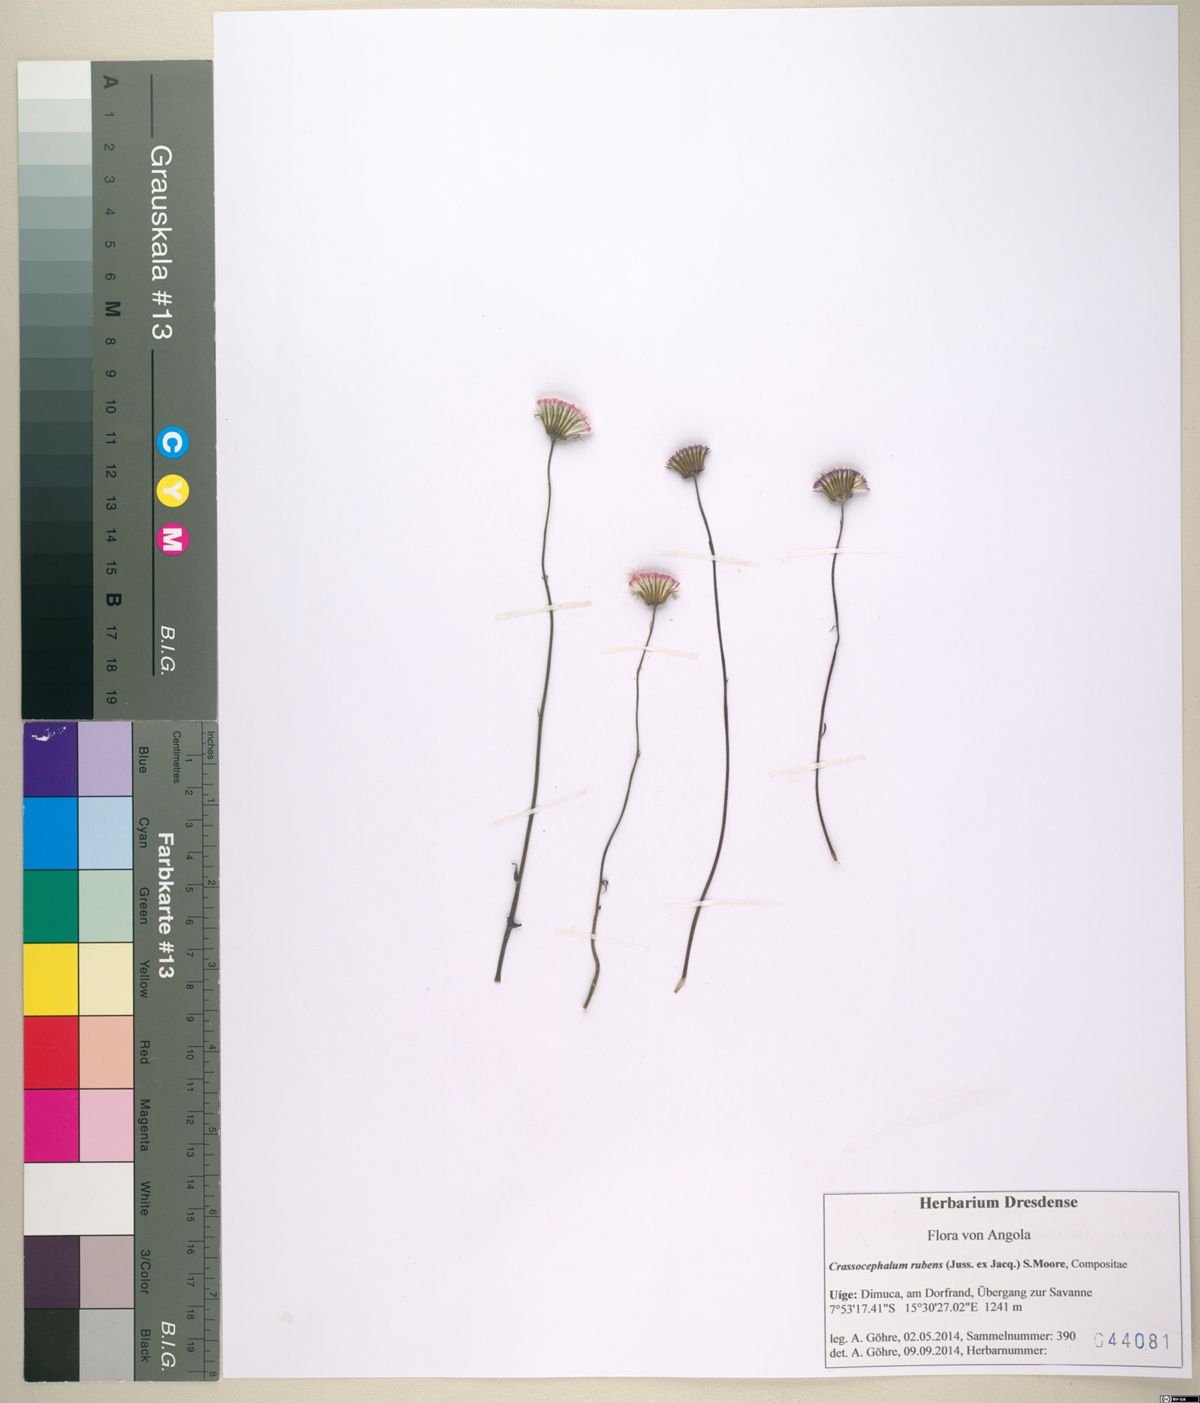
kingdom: Plantae
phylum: Tracheophyta
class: Magnoliopsida
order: Asterales
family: Asteraceae
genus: Crassocephalum
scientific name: Crassocephalum rubens
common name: Yoruban bologi
